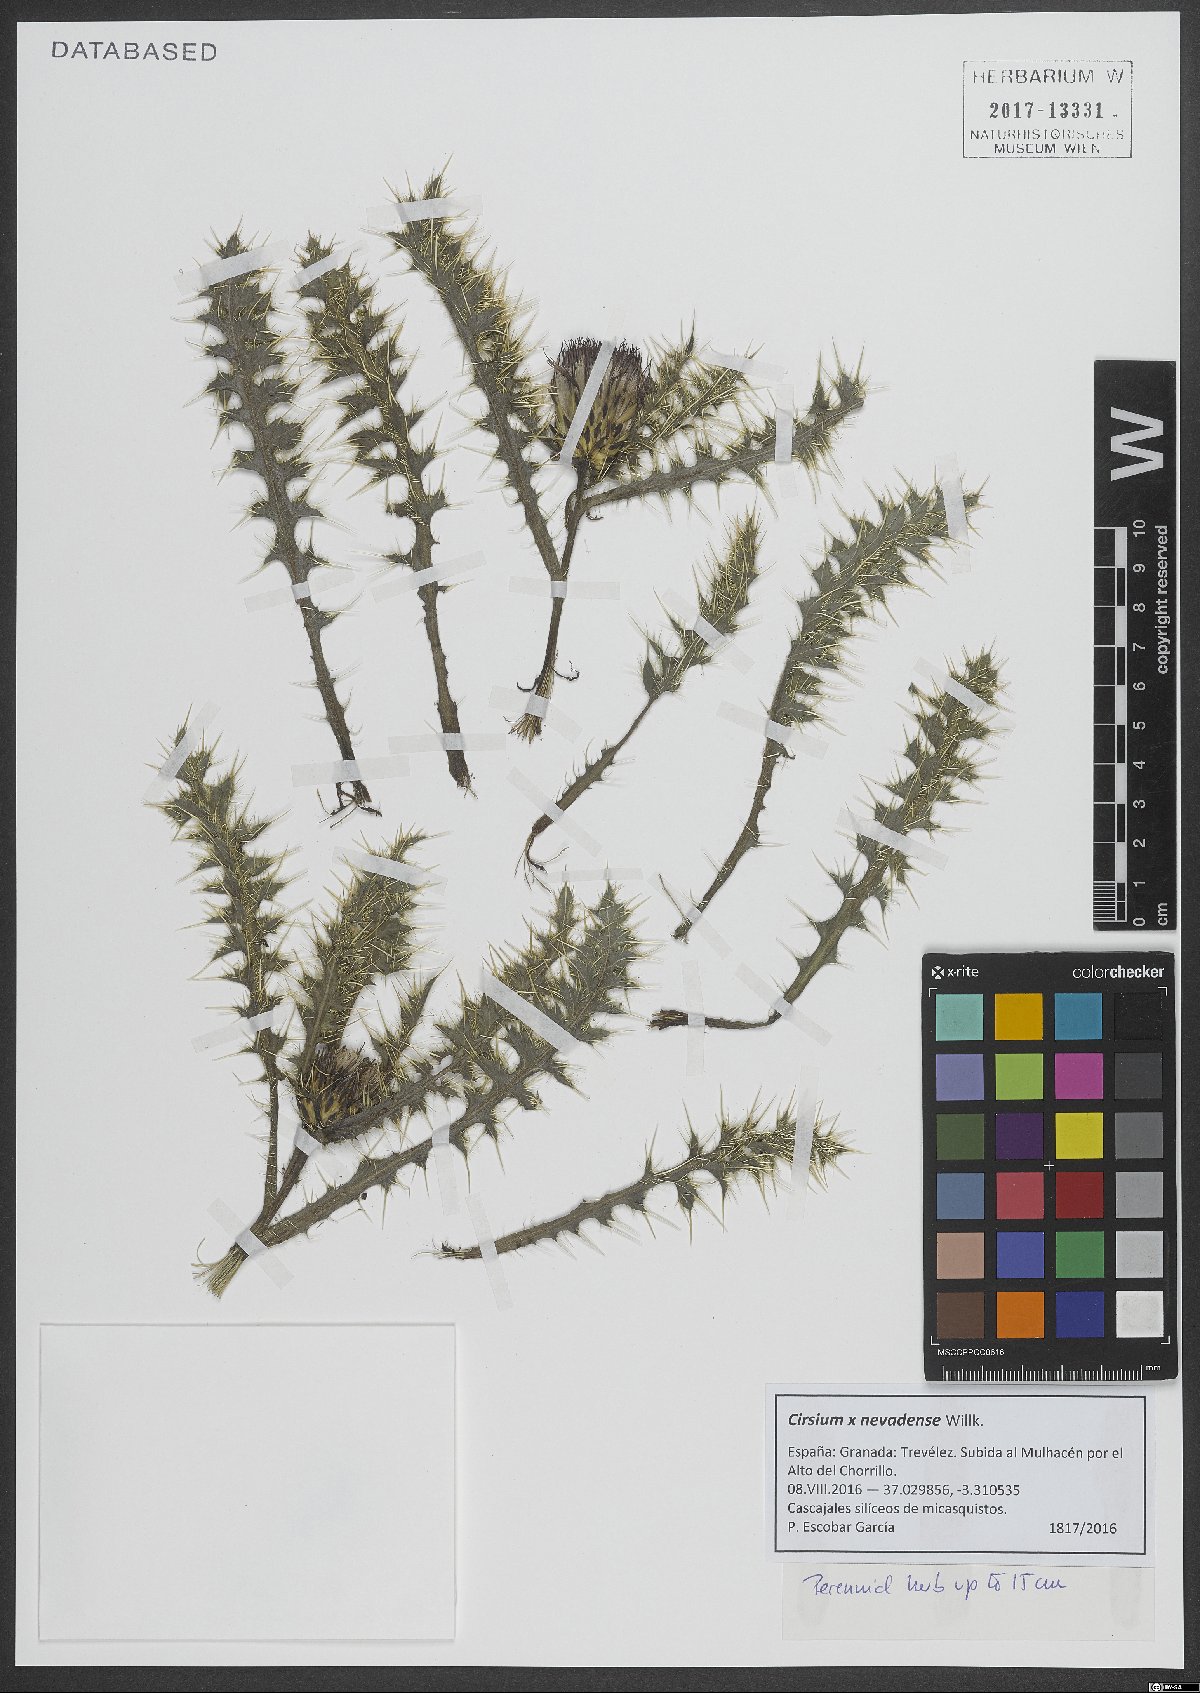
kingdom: Plantae
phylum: Tracheophyta
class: Magnoliopsida
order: Asterales
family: Asteraceae
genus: Cirsium
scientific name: Cirsium nevadense
